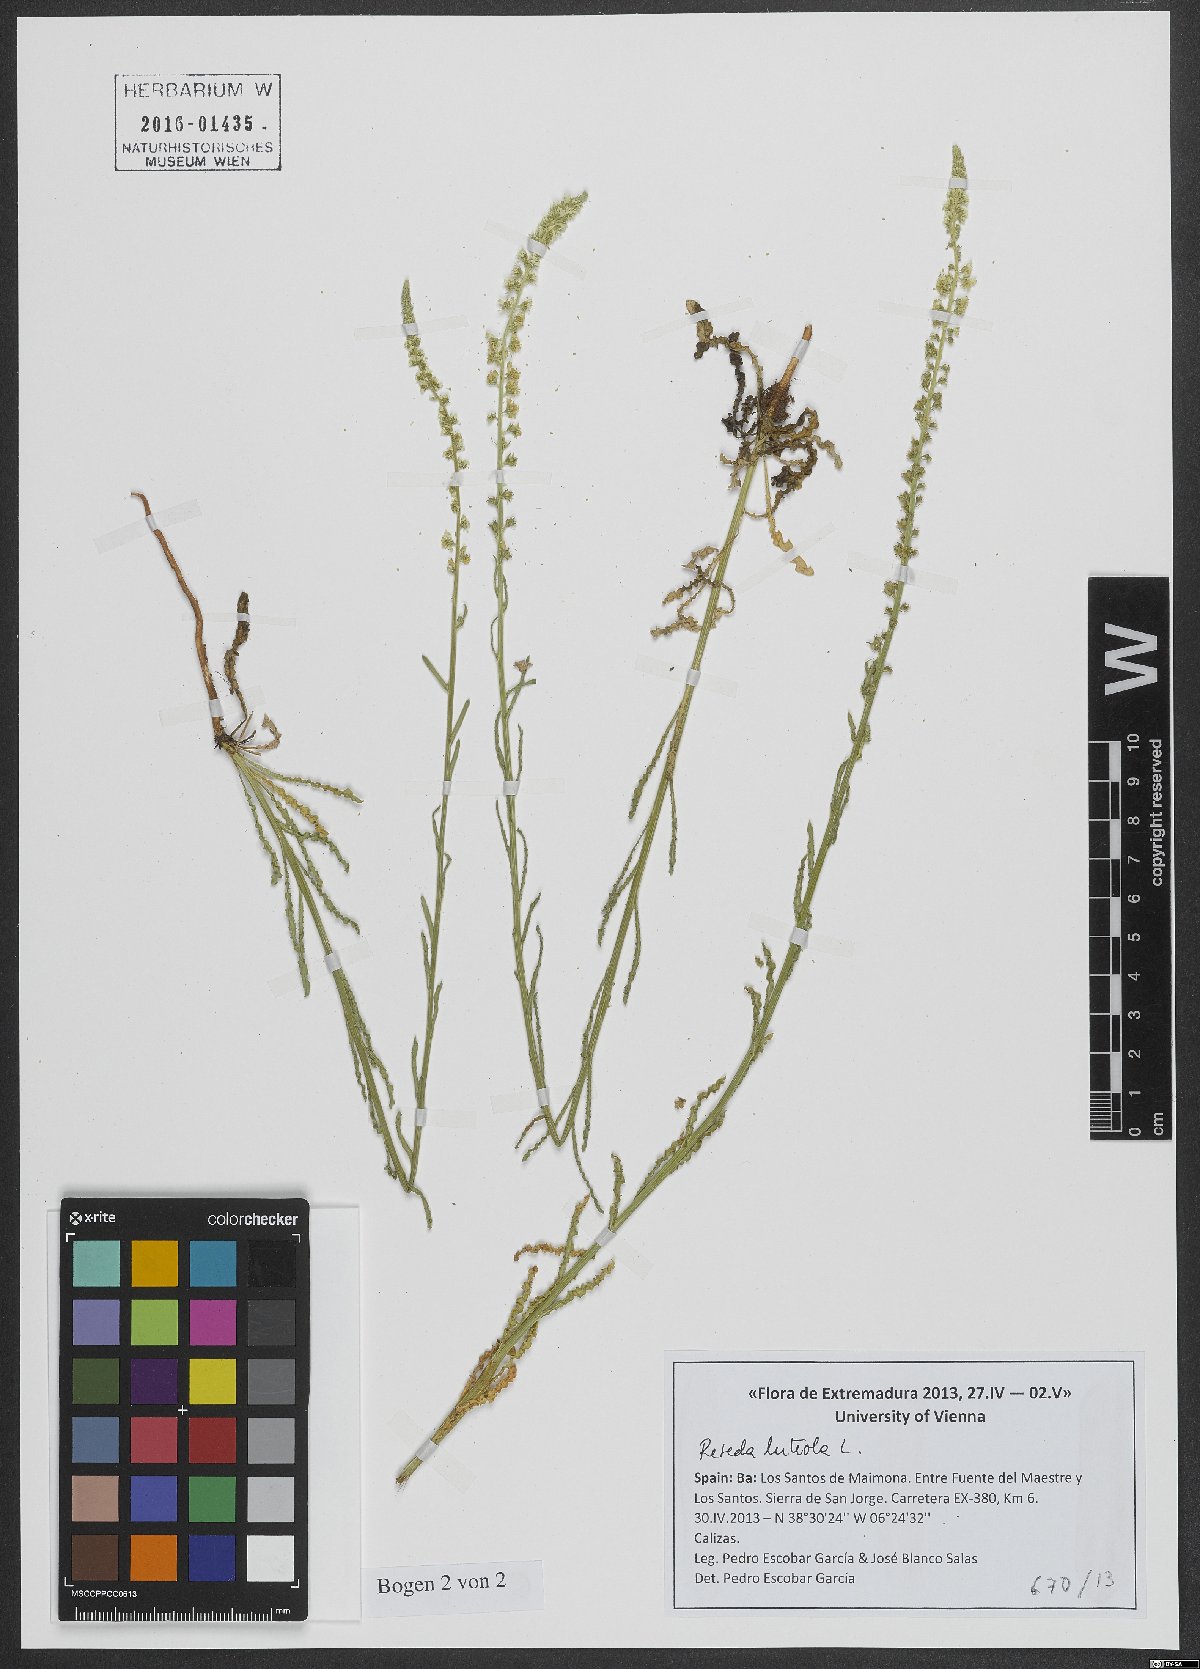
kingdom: Plantae
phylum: Tracheophyta
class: Magnoliopsida
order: Brassicales
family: Resedaceae
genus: Reseda
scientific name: Reseda luteola
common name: Weld
